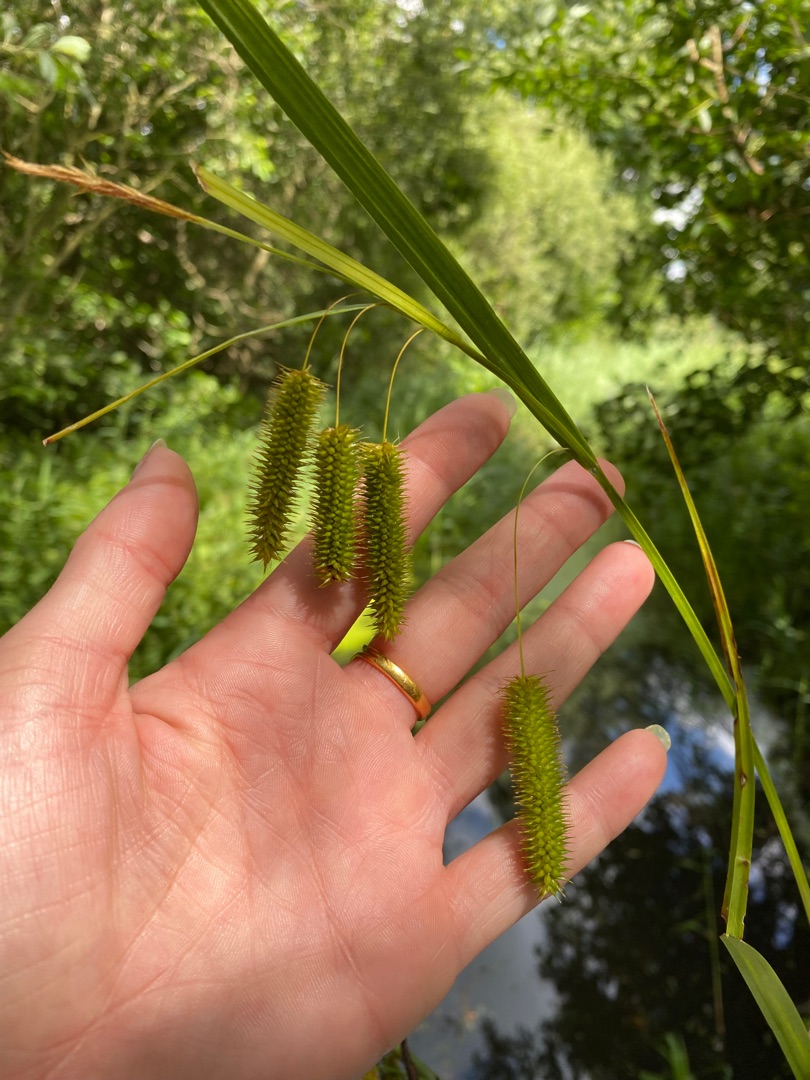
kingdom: Plantae
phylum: Tracheophyta
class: Liliopsida
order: Poales
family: Cyperaceae
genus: Carex
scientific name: Carex pseudocyperus
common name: Knippe-star
